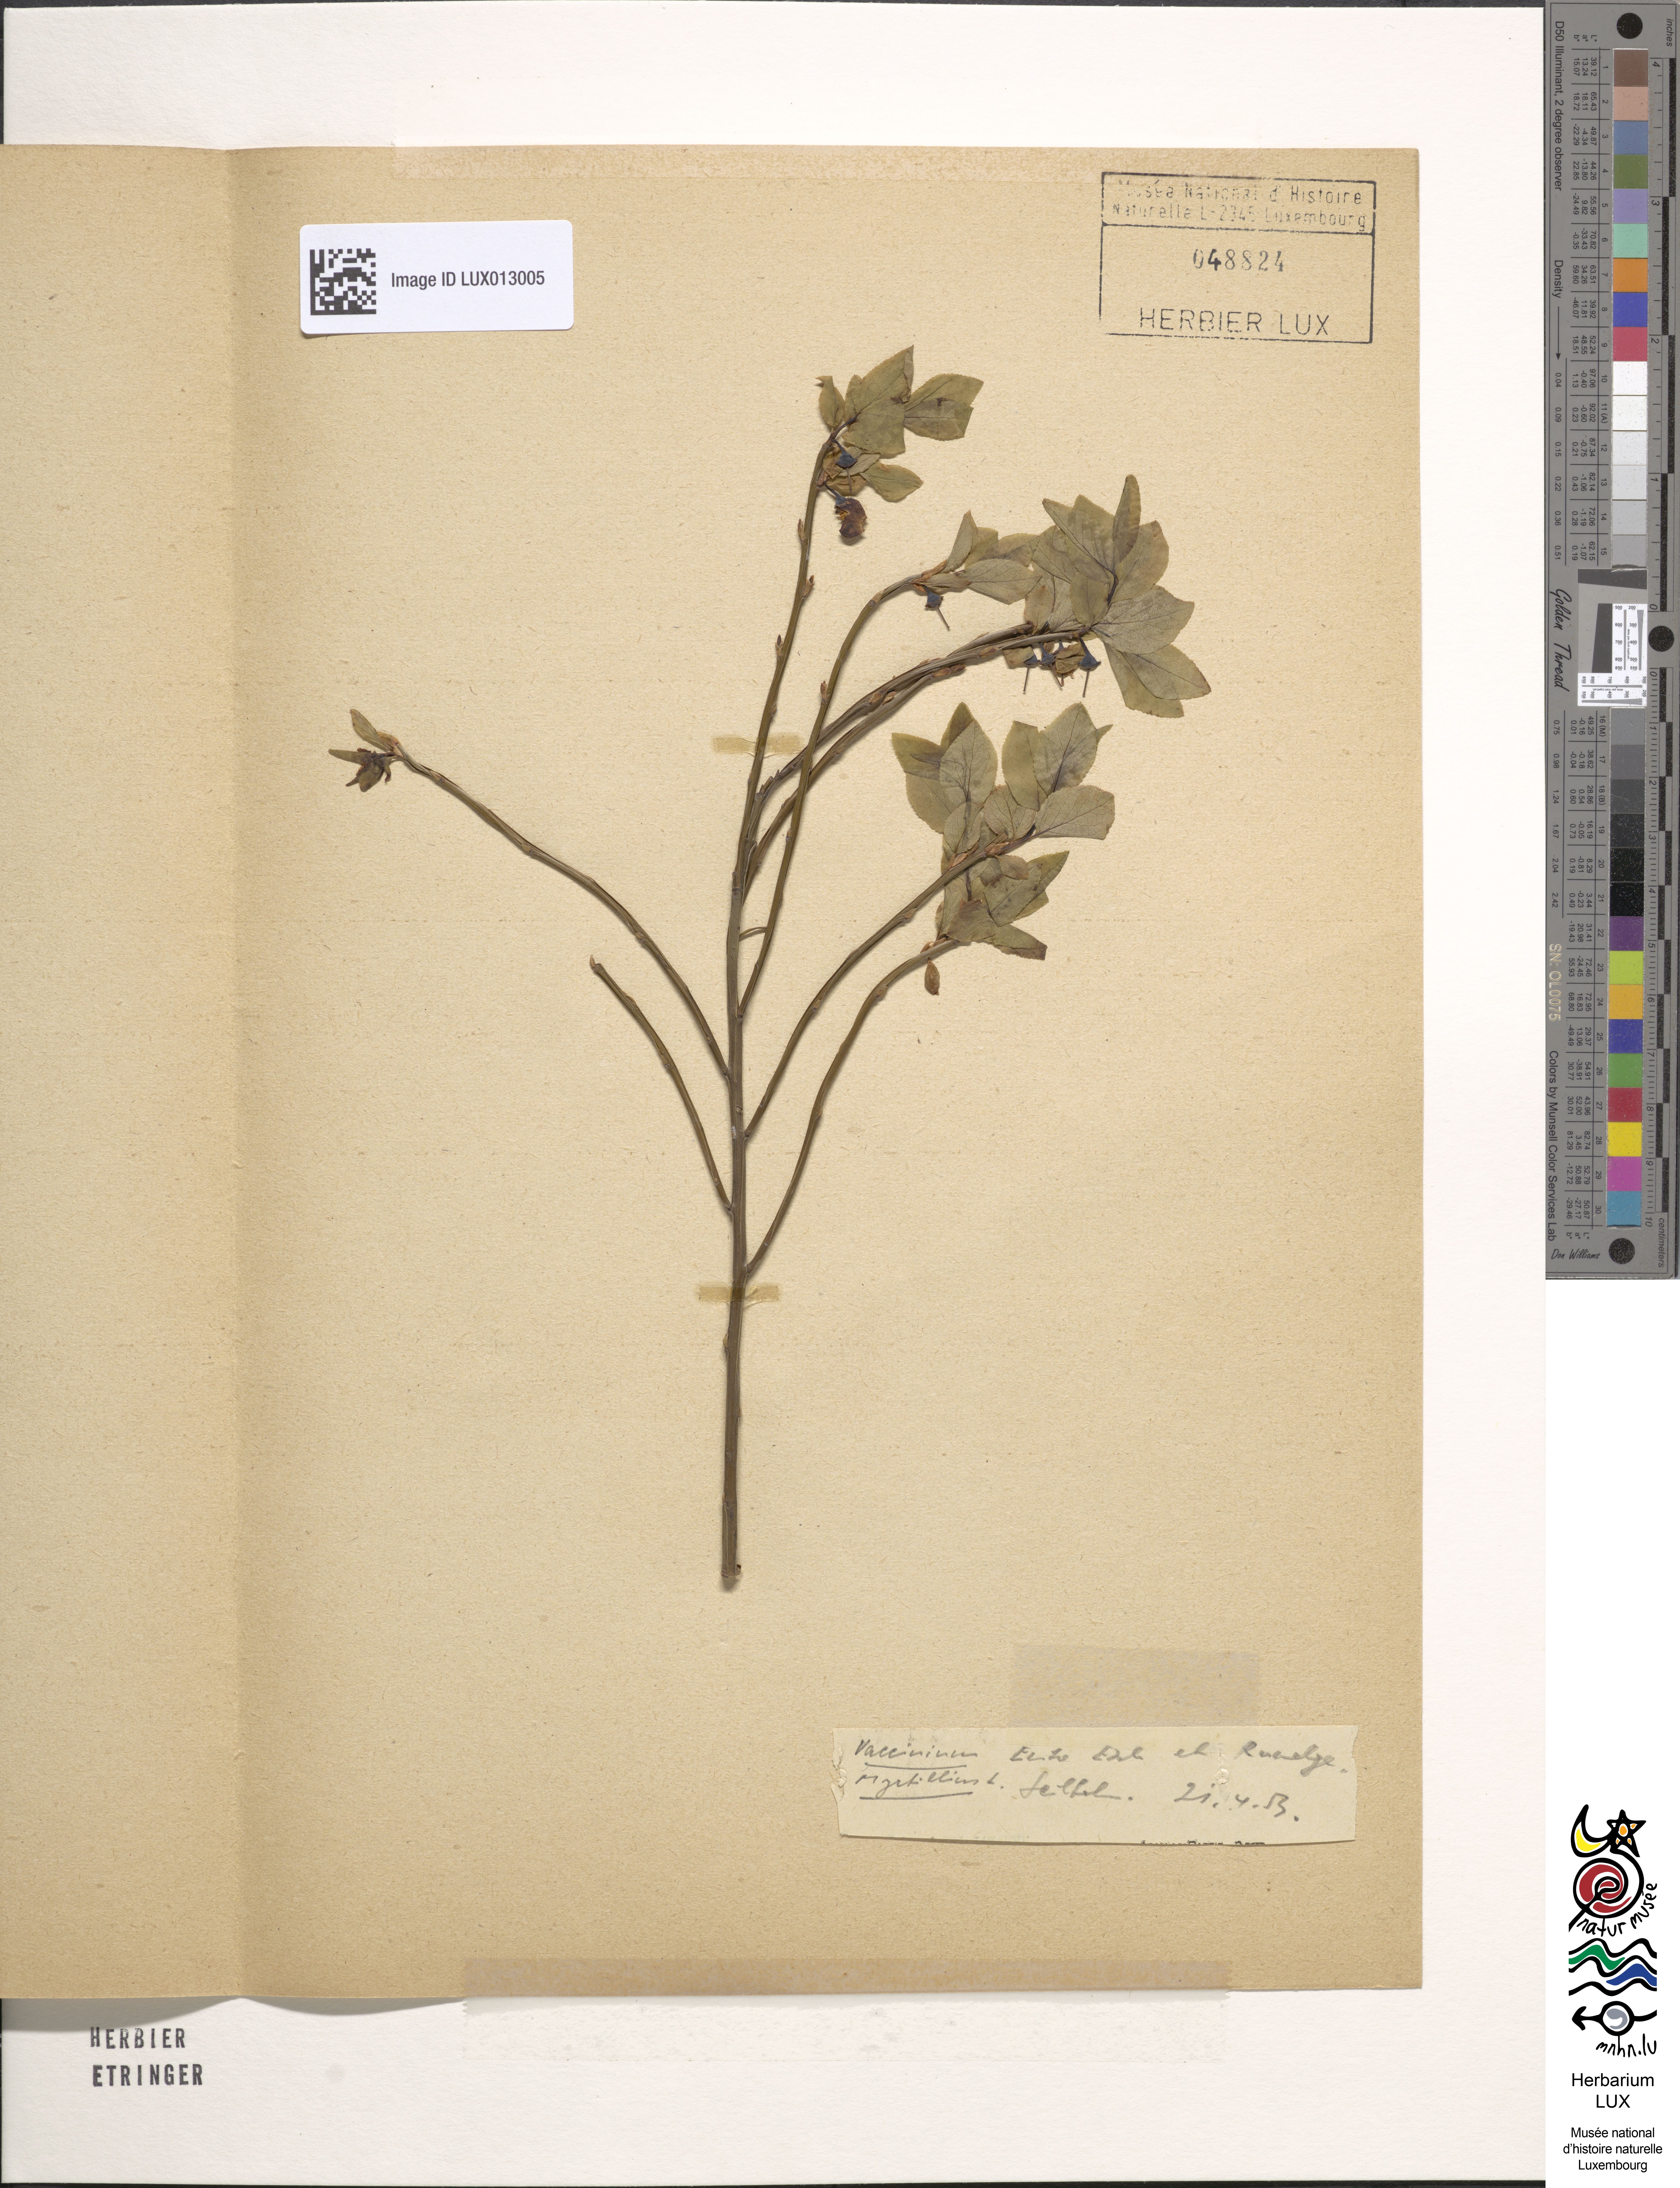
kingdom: Plantae
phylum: Tracheophyta
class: Magnoliopsida
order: Ericales
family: Ericaceae
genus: Vaccinium
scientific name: Vaccinium myrtillus
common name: Bilberry
